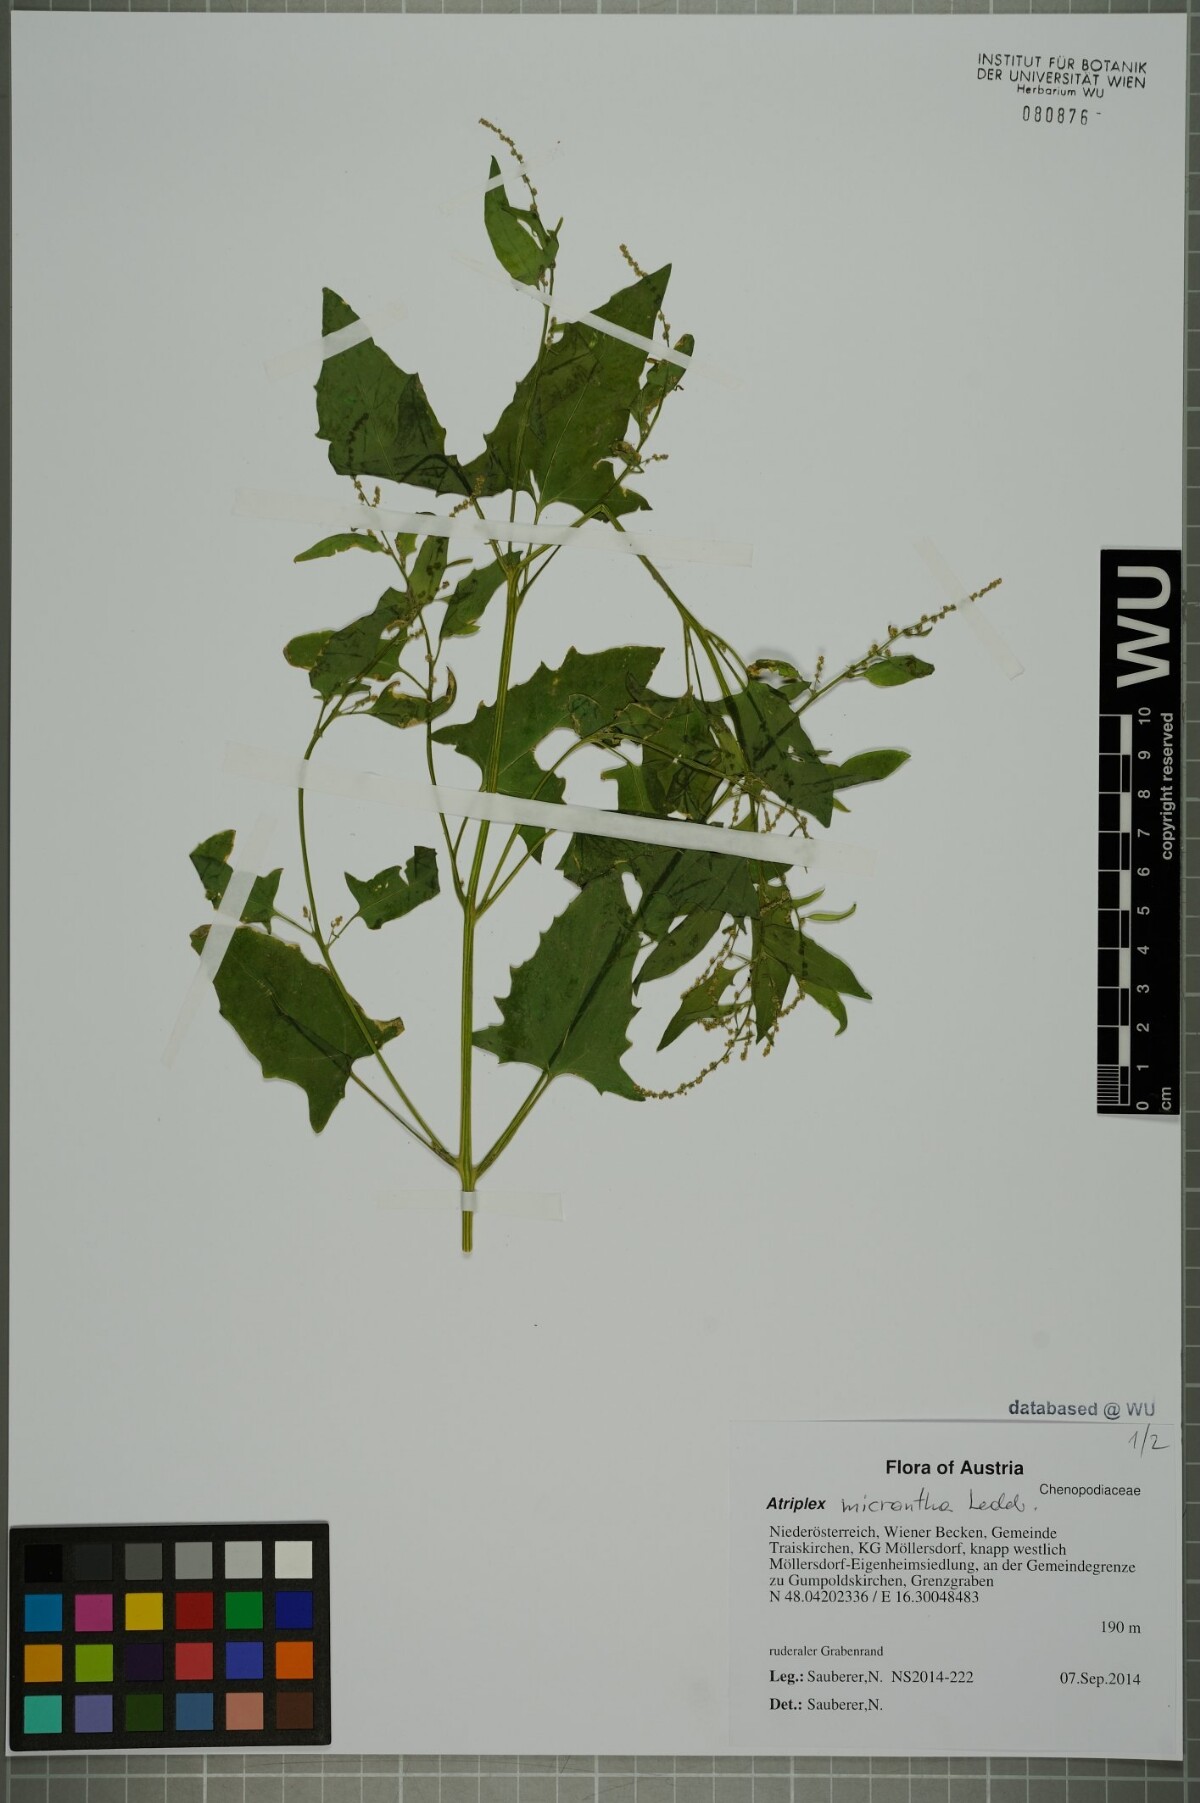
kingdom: Plantae
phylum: Tracheophyta
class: Magnoliopsida
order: Caryophyllales
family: Amaranthaceae
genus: Atriplex
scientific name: Atriplex micrantha
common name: Twoscale saltbush
